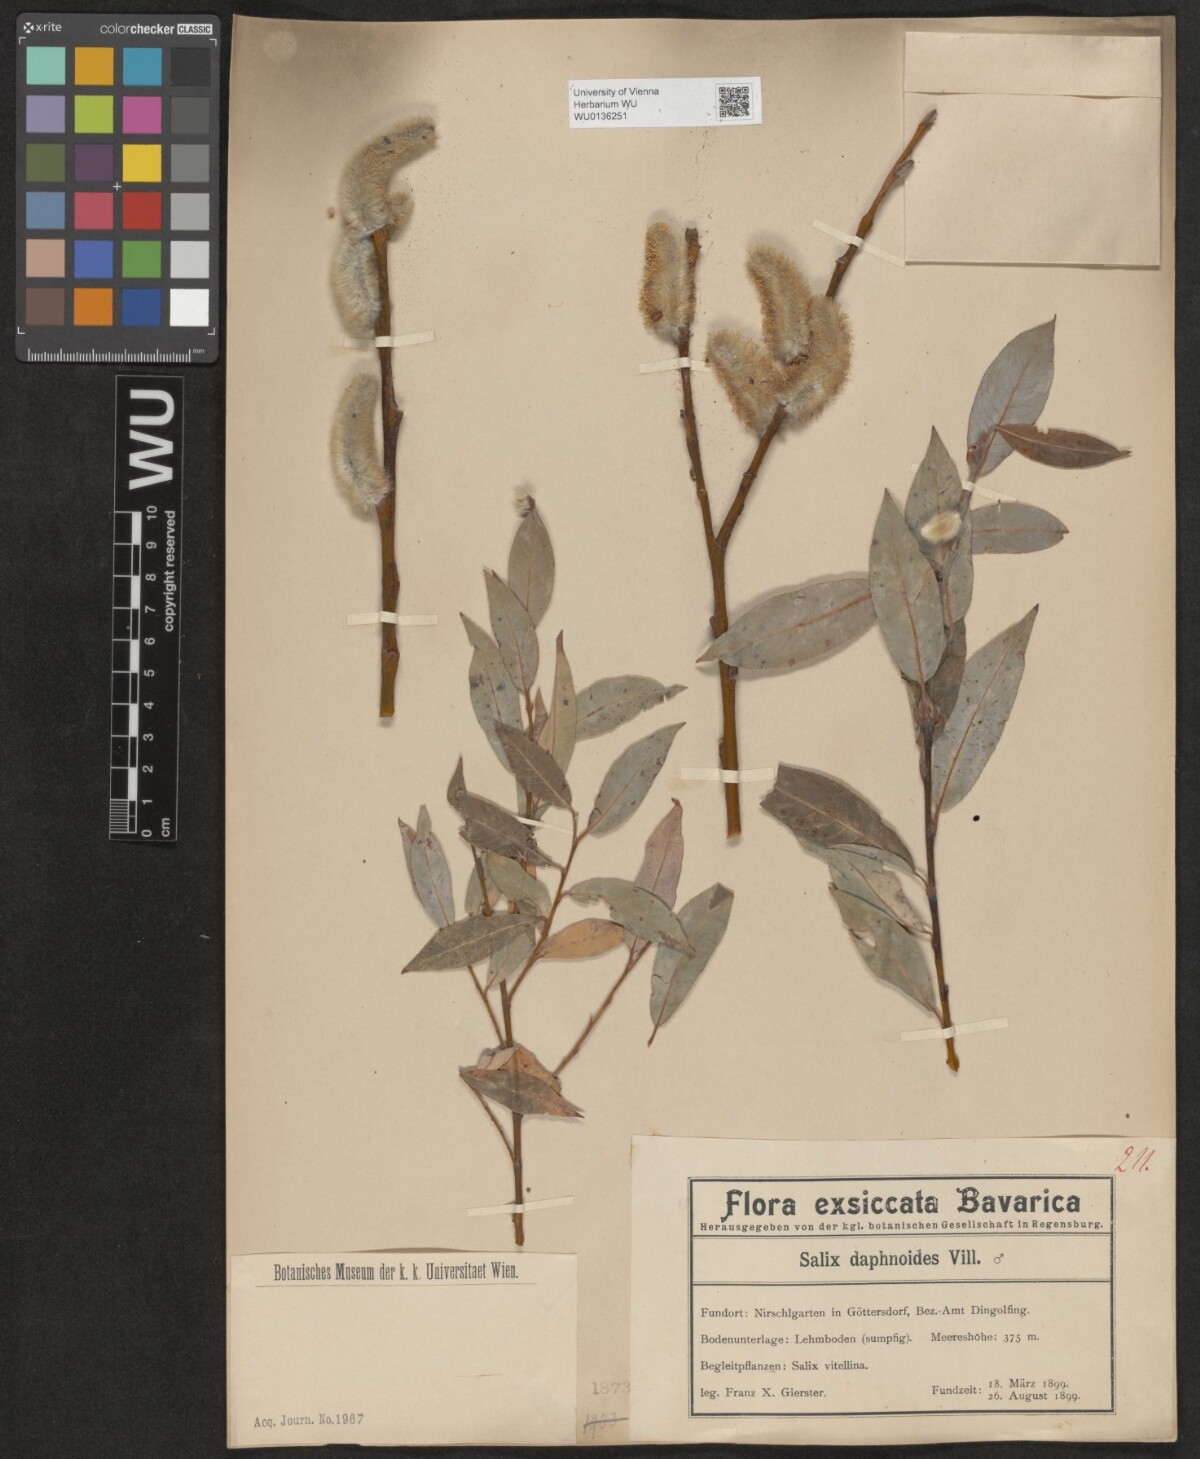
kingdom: Plantae
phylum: Tracheophyta
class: Magnoliopsida
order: Malpighiales
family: Salicaceae
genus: Salix
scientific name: Salix daphnoides
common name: European violet-willow
